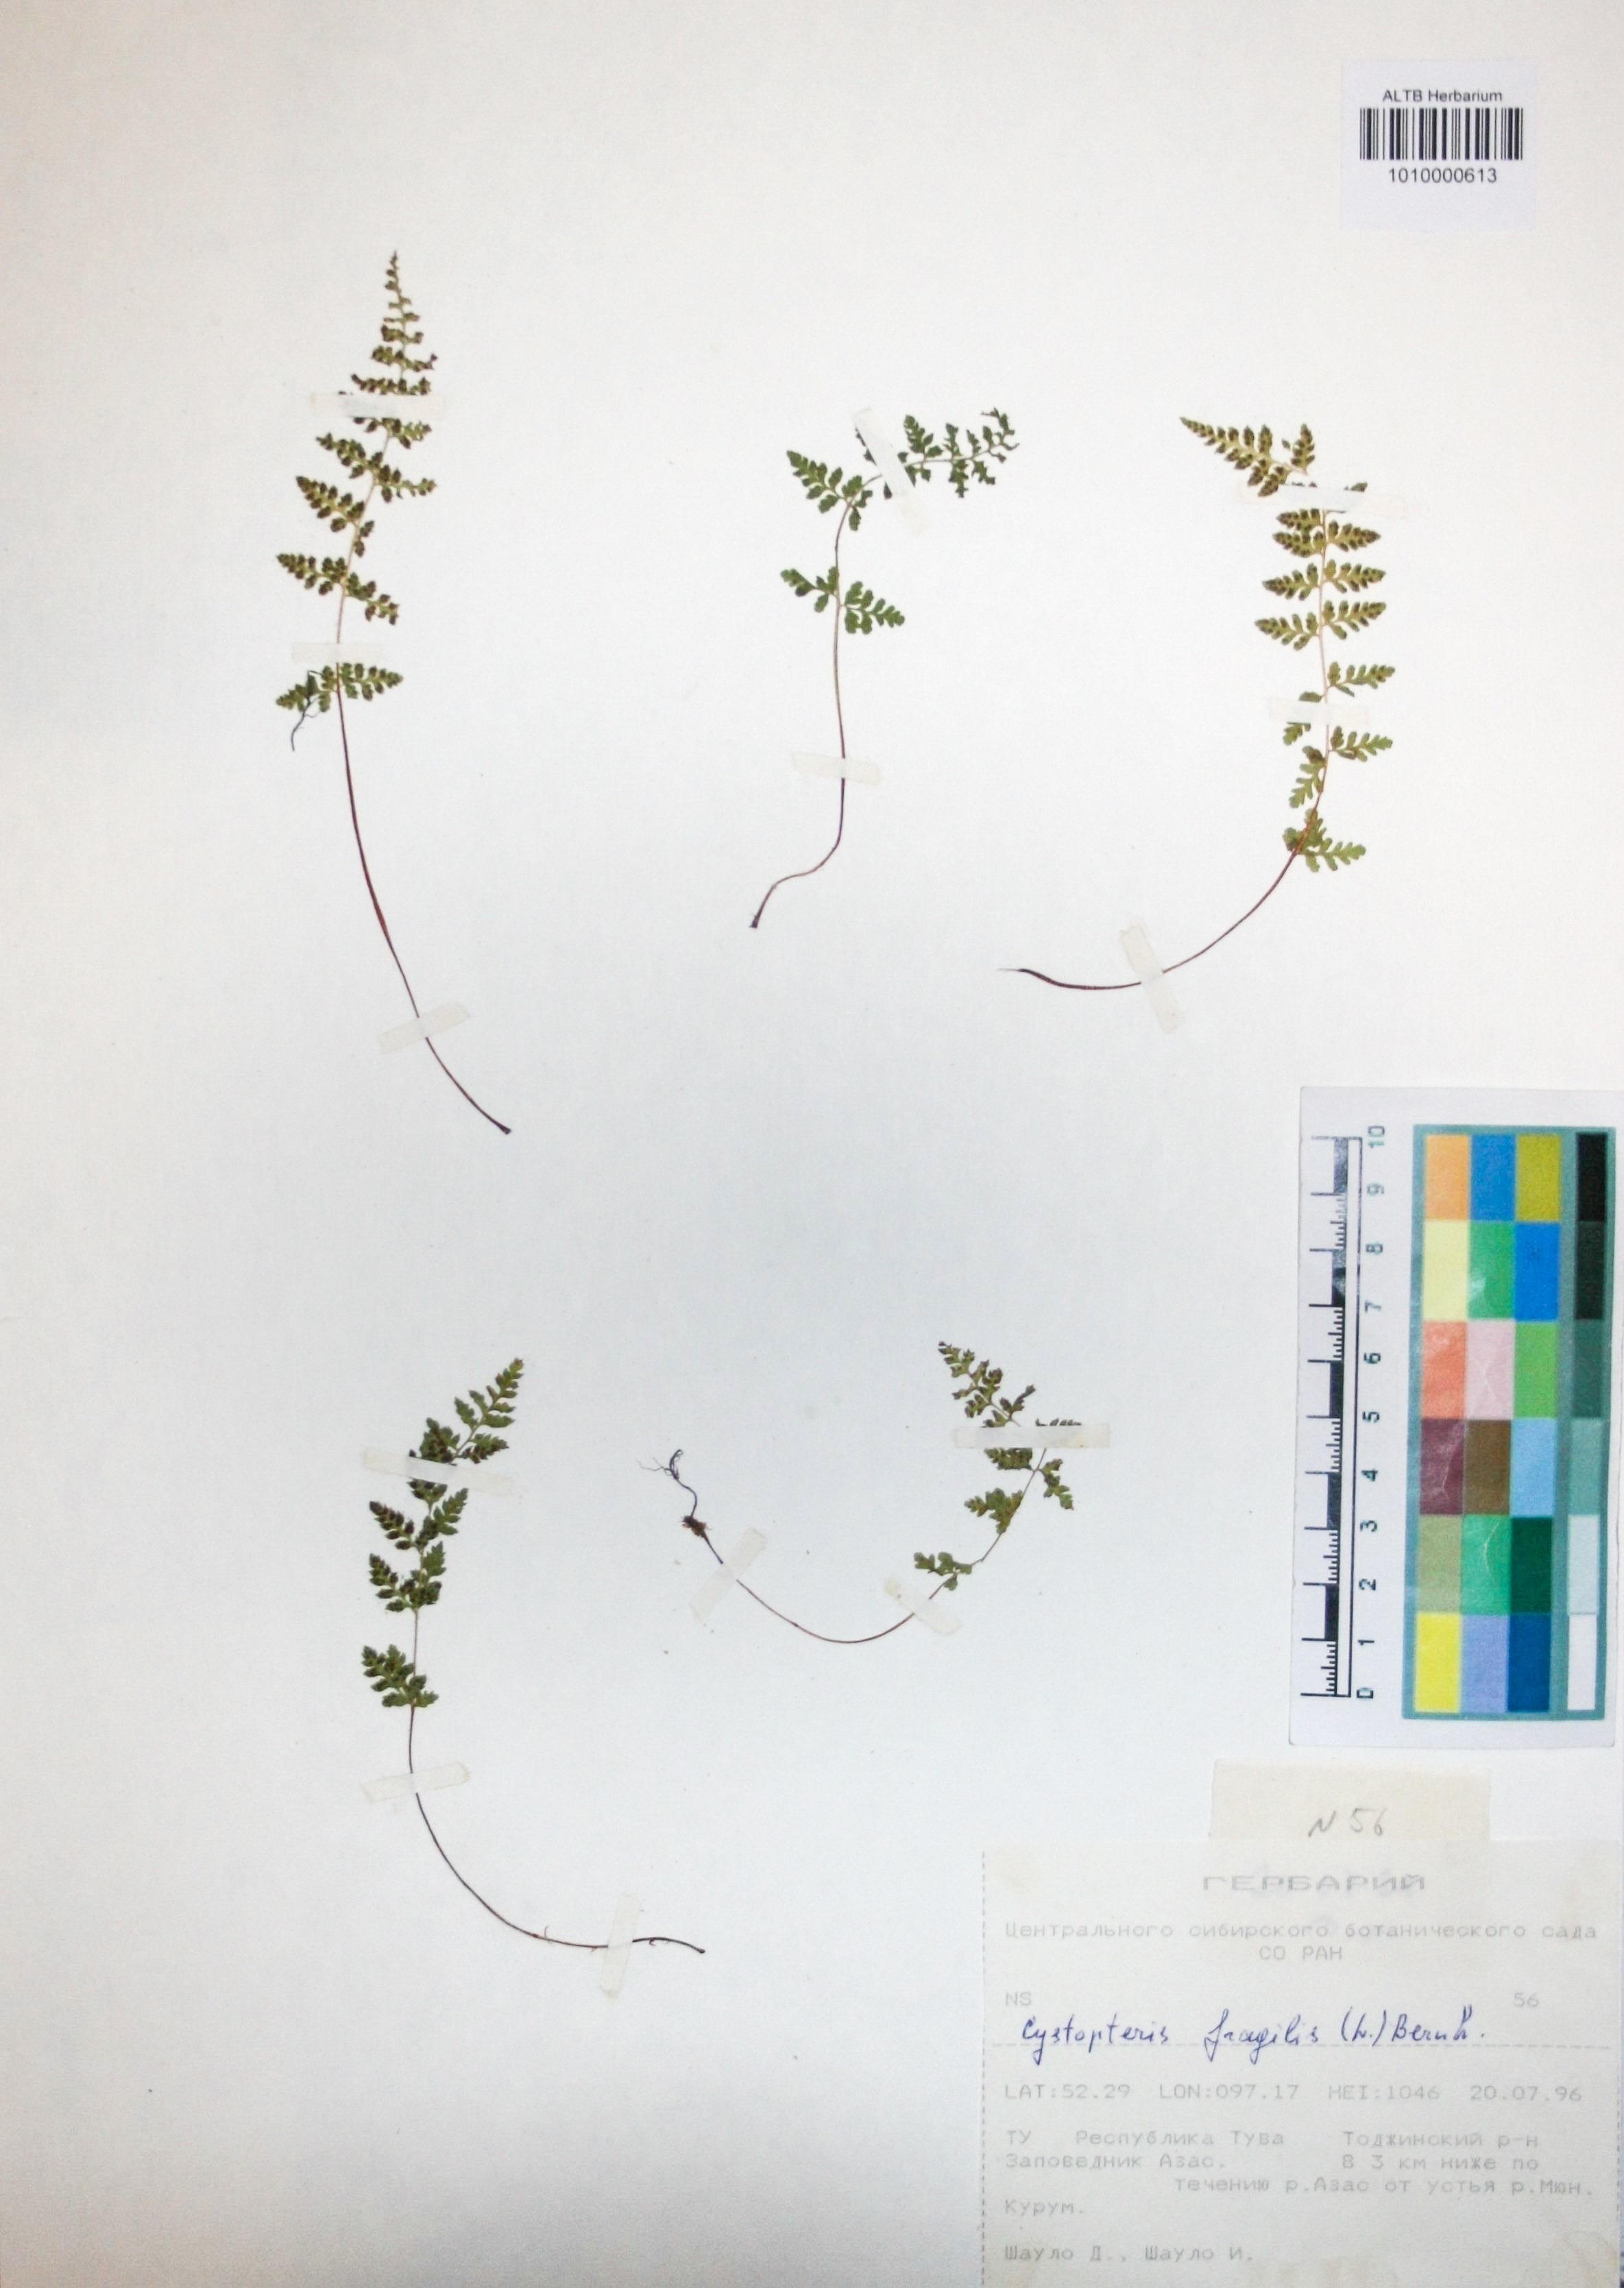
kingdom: Plantae
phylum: Tracheophyta
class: Polypodiopsida
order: Polypodiales
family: Cystopteridaceae
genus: Cystopteris
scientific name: Cystopteris fragilis
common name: Brittle bladder fern
